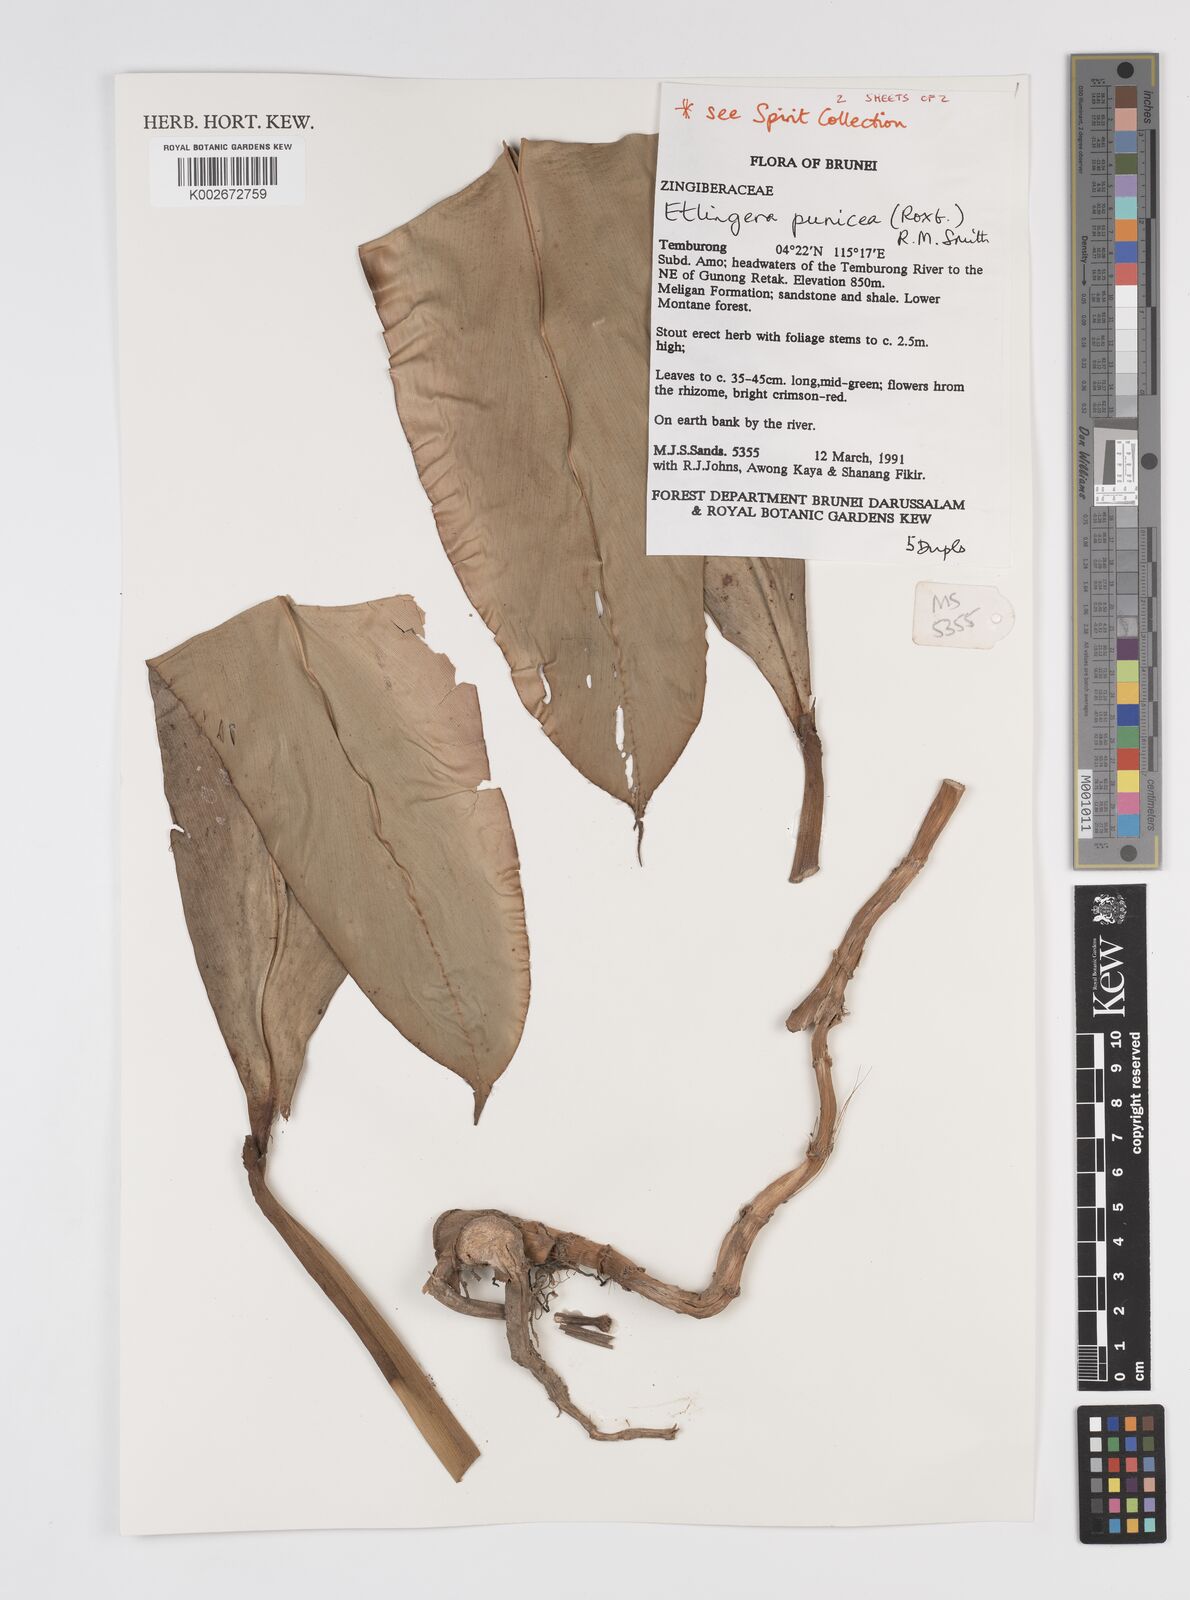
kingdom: Plantae
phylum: Tracheophyta
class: Liliopsida
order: Zingiberales
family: Zingiberaceae
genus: Etlingera
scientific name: Etlingera punicea
